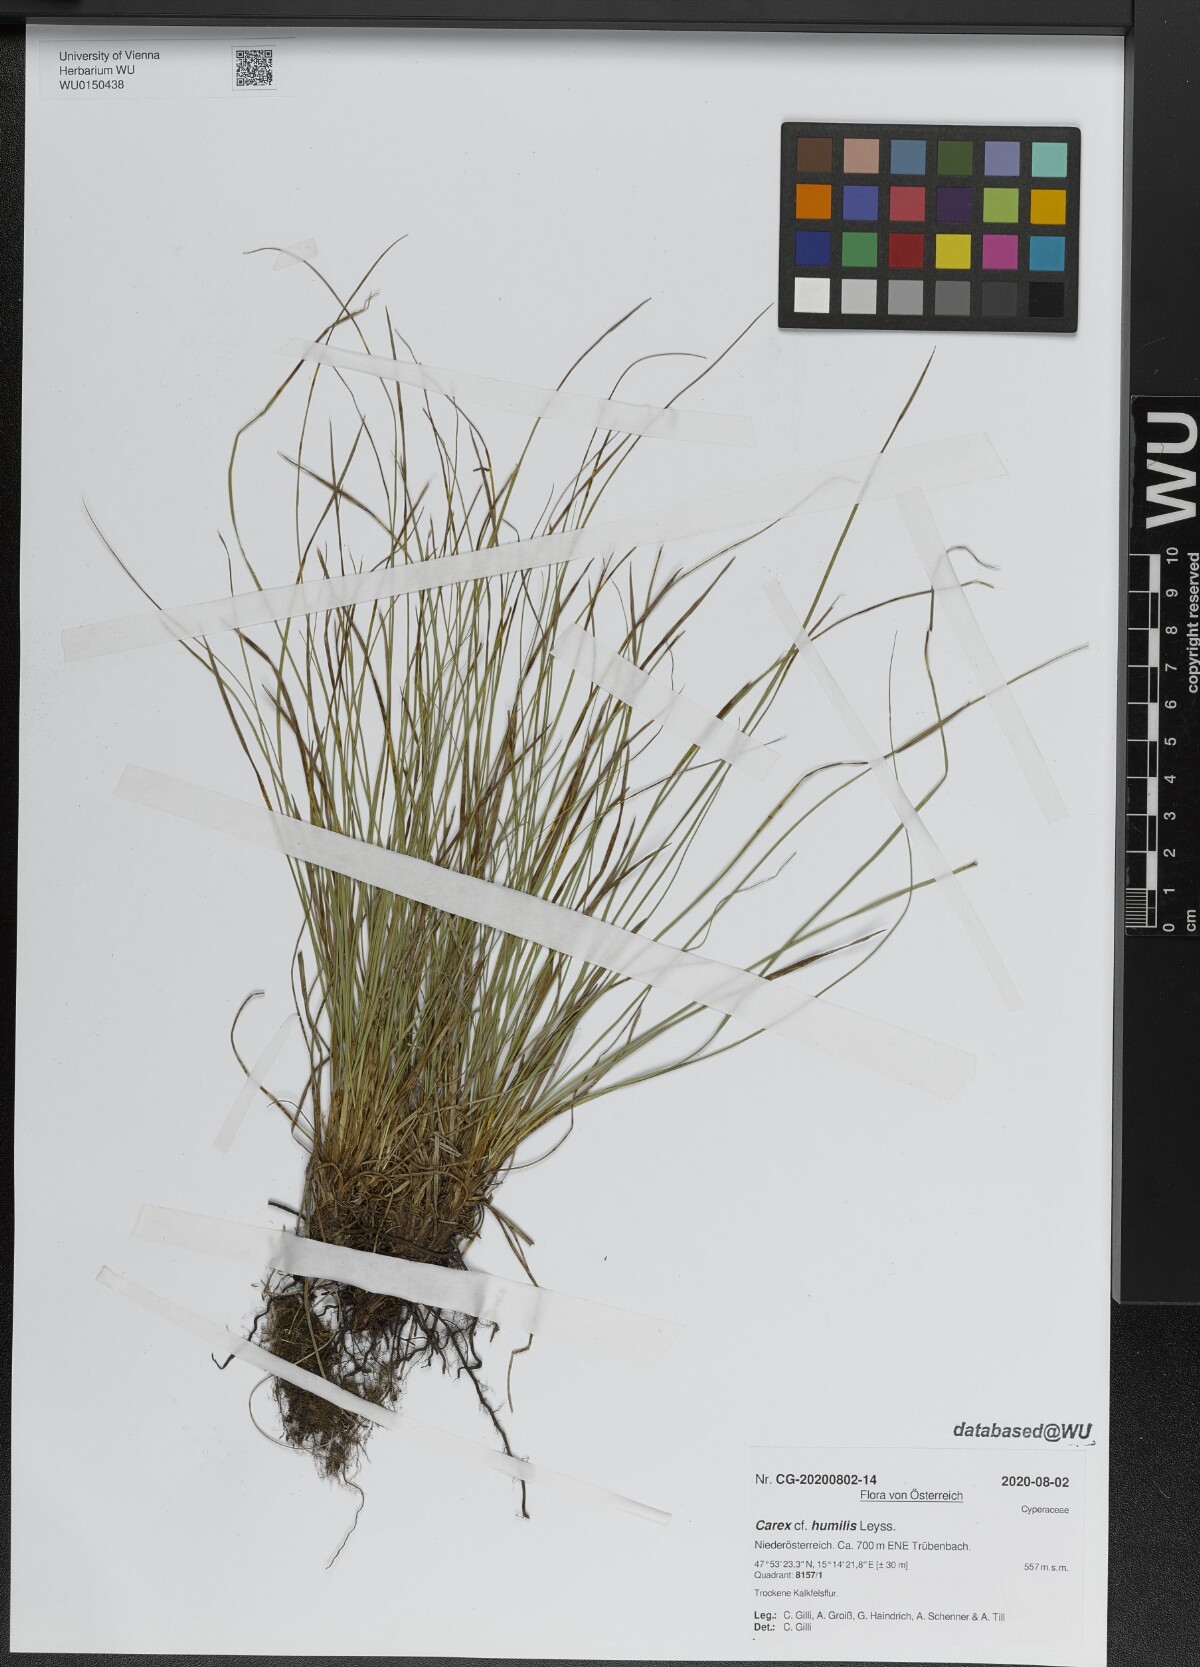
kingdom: Plantae
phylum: Tracheophyta
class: Liliopsida
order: Poales
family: Cyperaceae
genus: Carex
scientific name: Carex humilis
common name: Dwarf sedge
